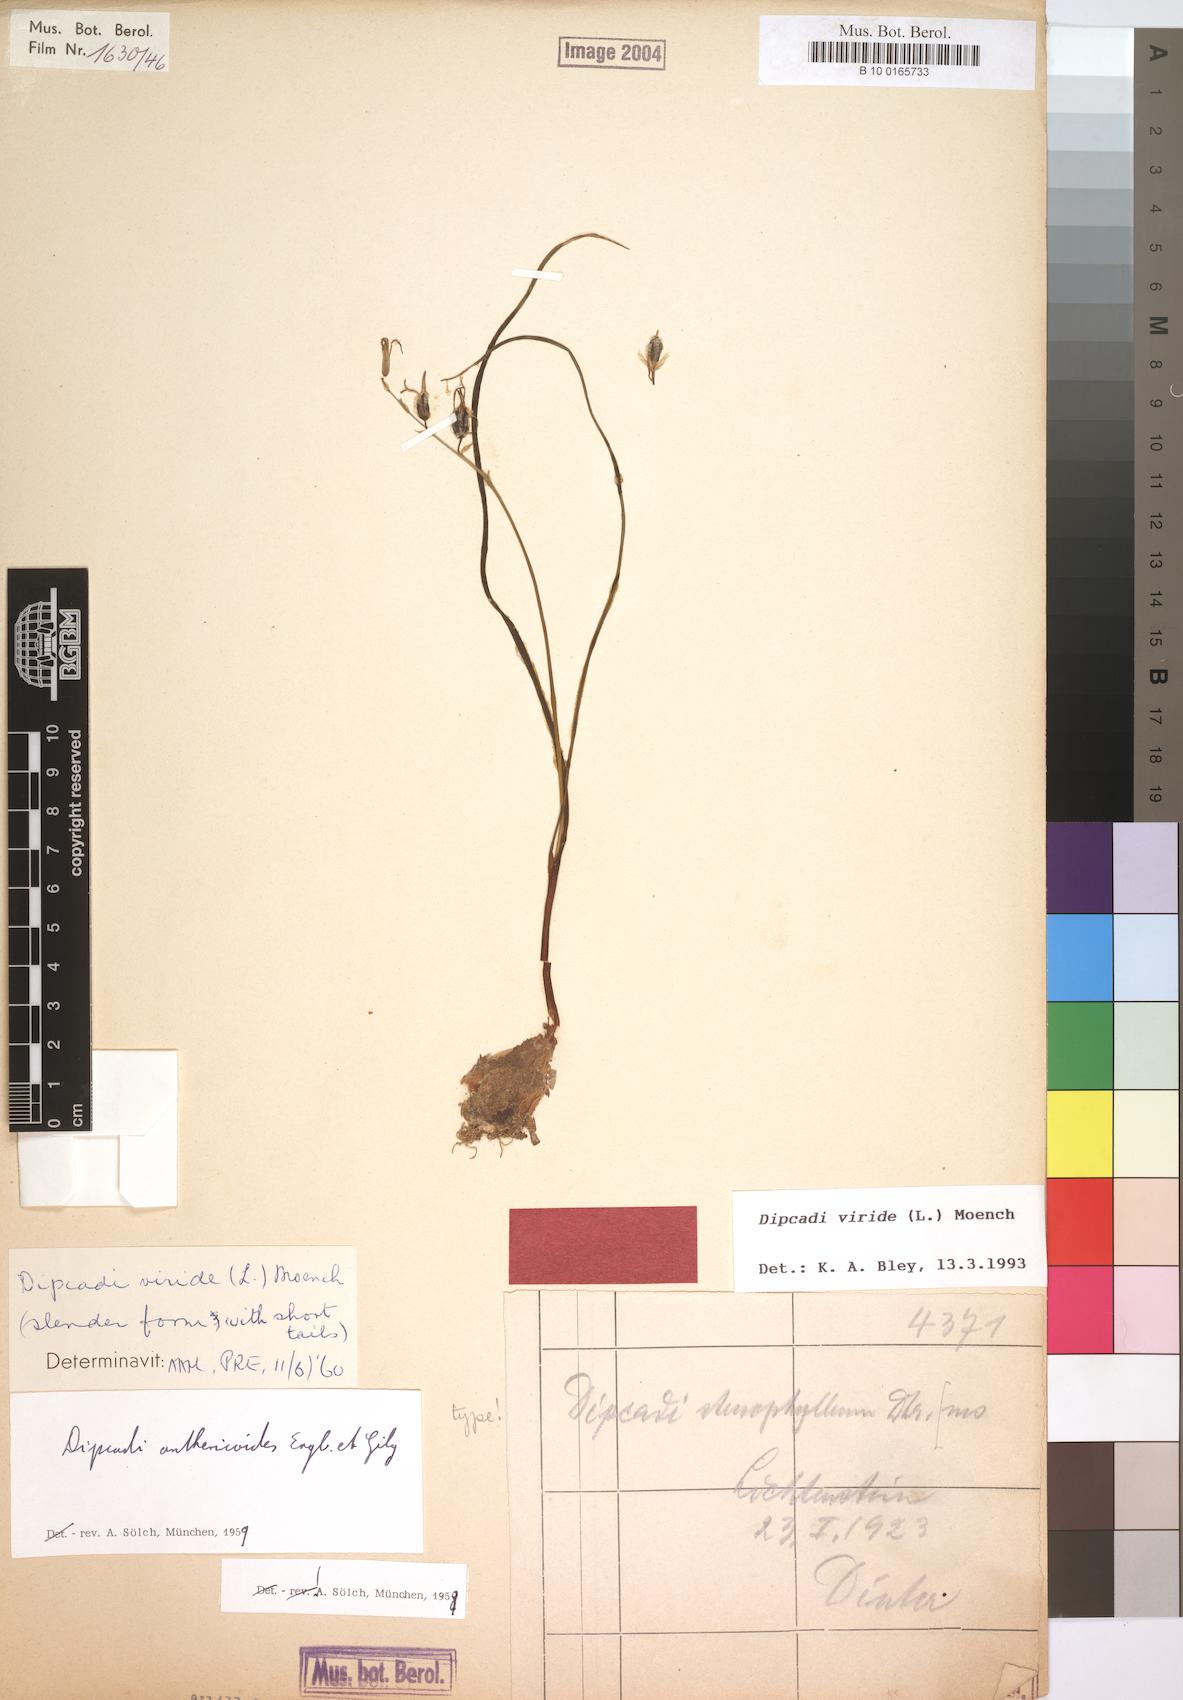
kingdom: Plantae
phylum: Tracheophyta
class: Liliopsida
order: Asparagales
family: Asparagaceae
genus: Dipcadi
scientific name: Dipcadi viride
